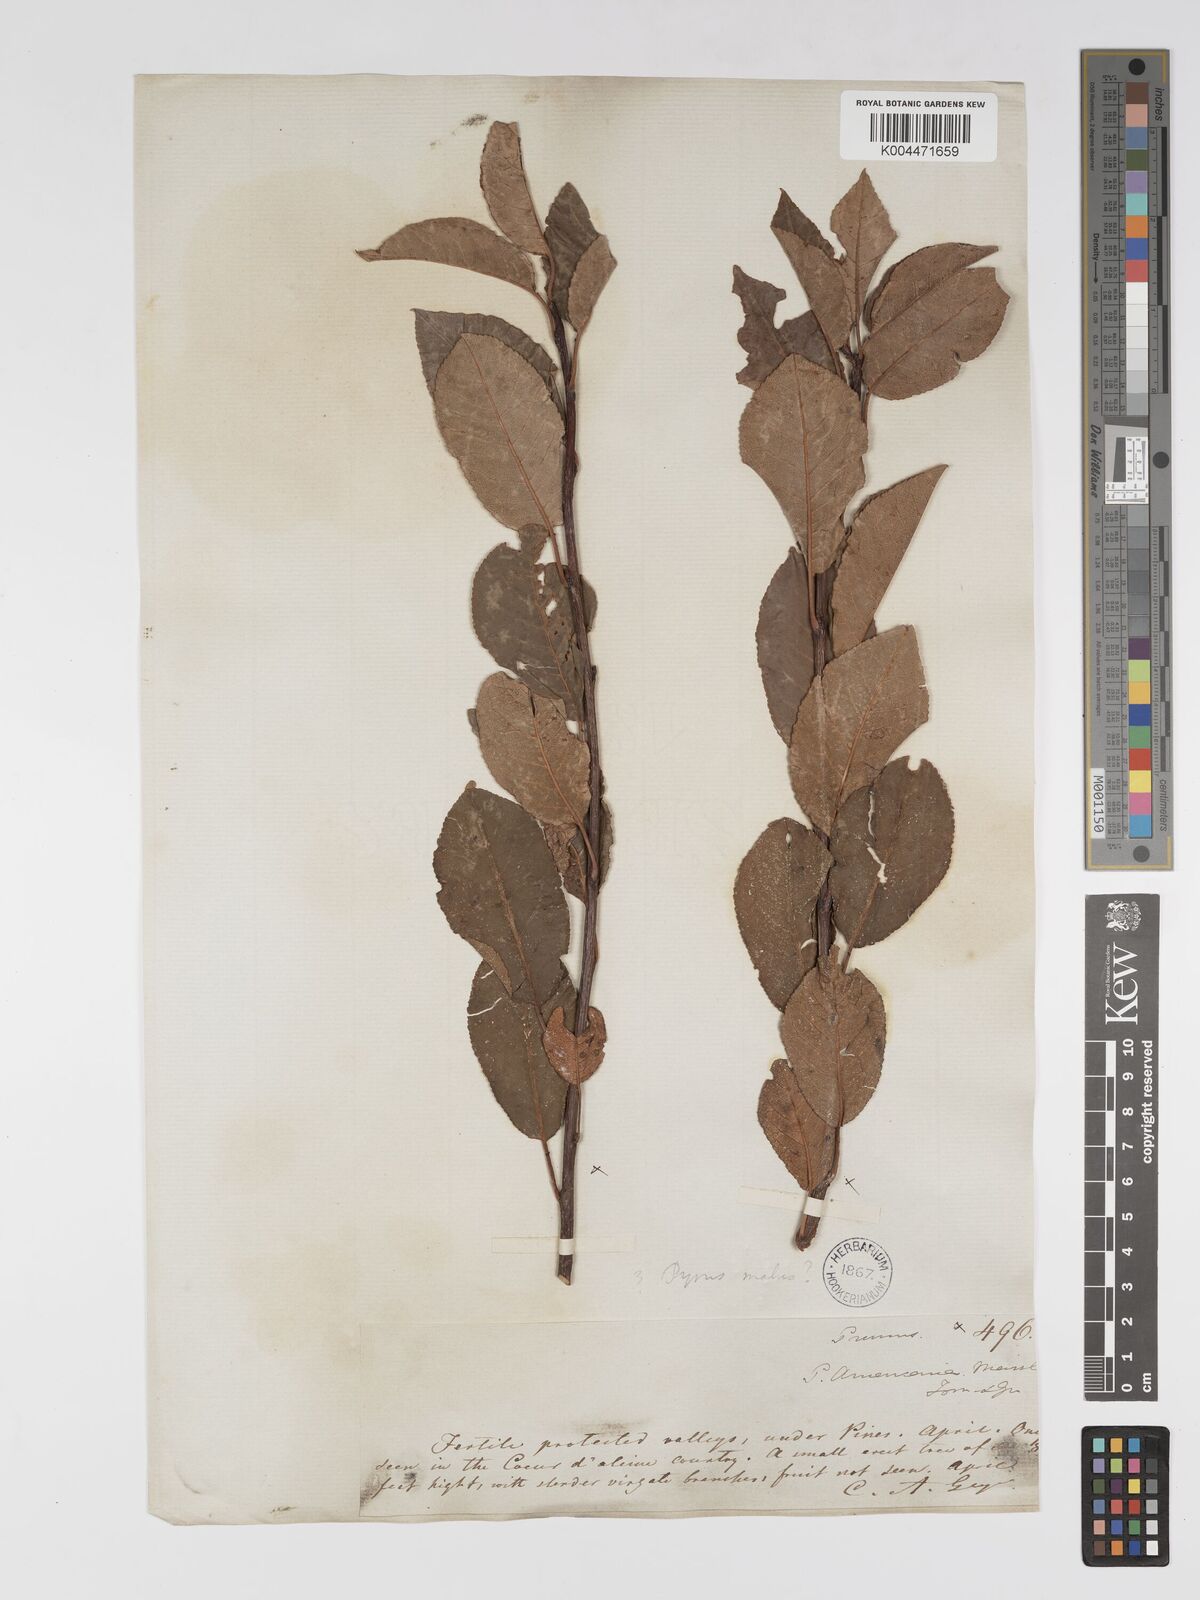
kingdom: Plantae
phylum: Tracheophyta
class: Magnoliopsida
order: Rosales
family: Rosaceae
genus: Prunus
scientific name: Prunus cocomilia
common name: Italian plum
